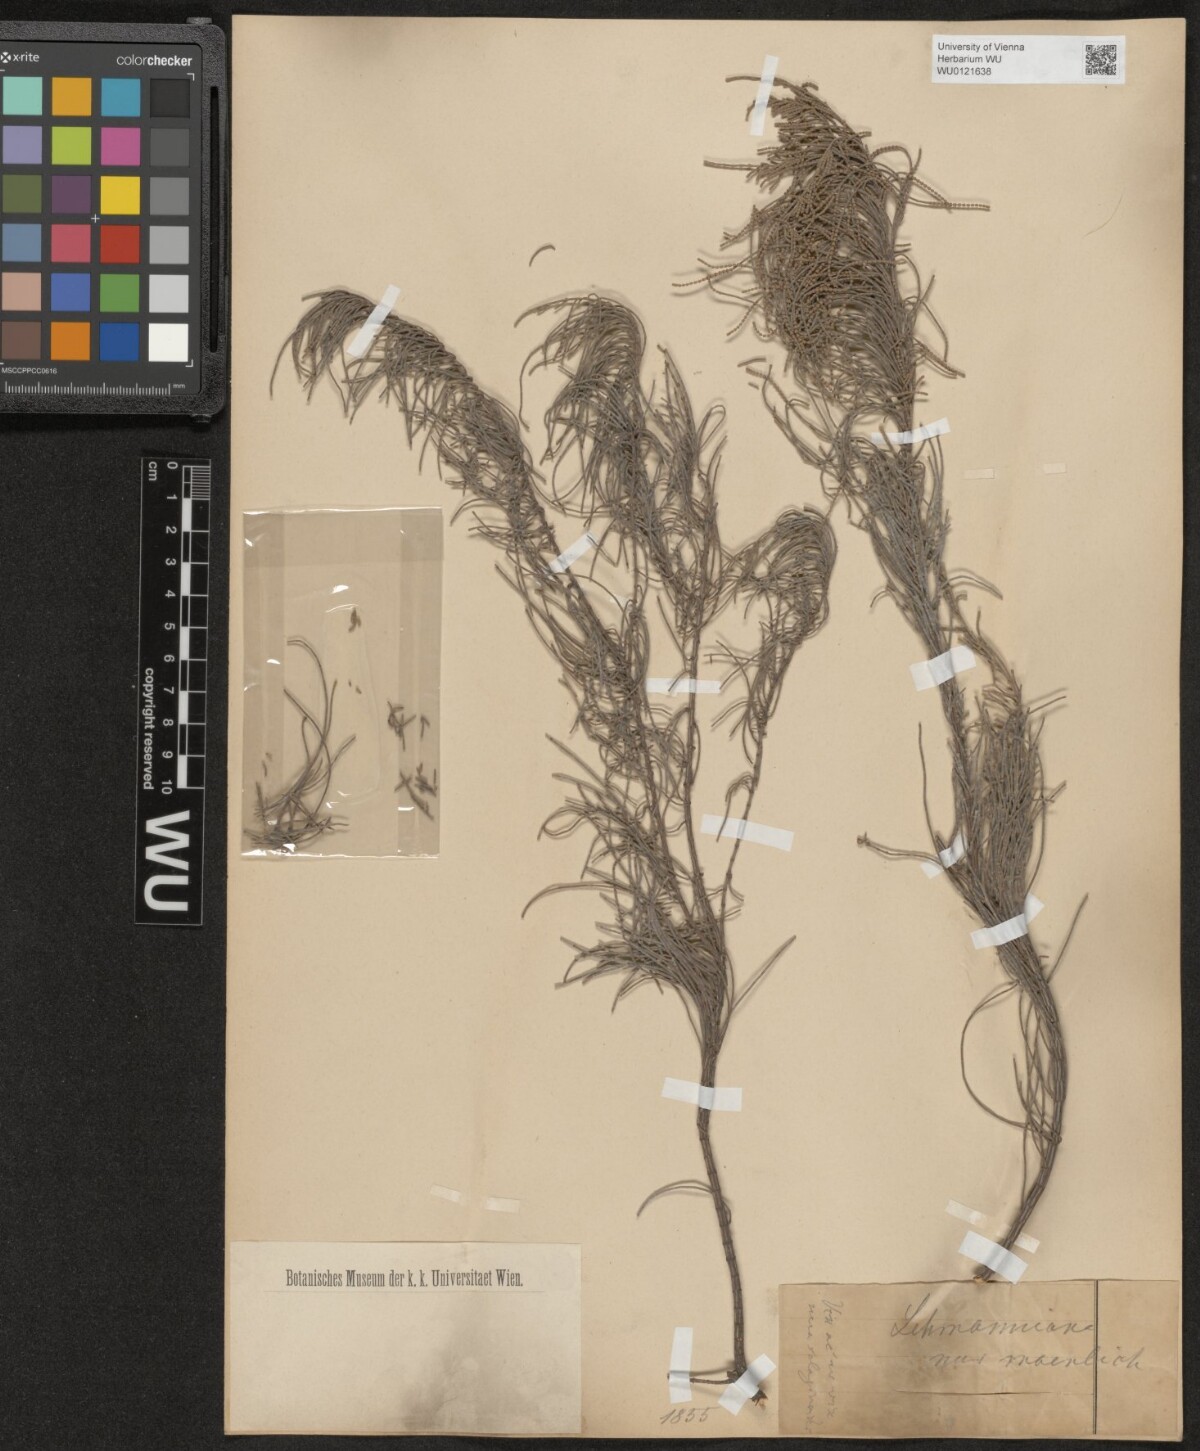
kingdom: Plantae
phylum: Tracheophyta
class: Magnoliopsida
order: Fagales
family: Casuarinaceae
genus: Allocasuarina
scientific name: Allocasuarina lehmanniana
